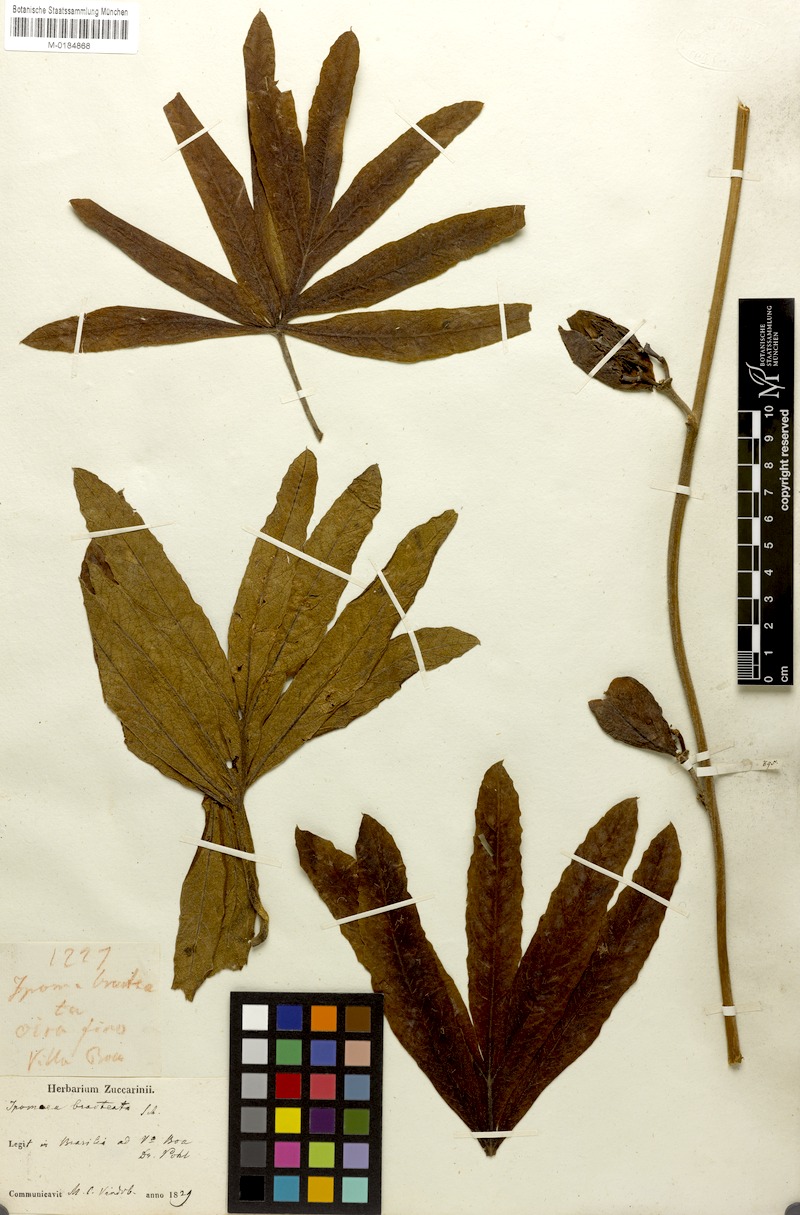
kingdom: Plantae
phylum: Tracheophyta
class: Magnoliopsida
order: Solanales
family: Convolvulaceae
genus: Ipomoea
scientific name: Ipomoea gigantea
